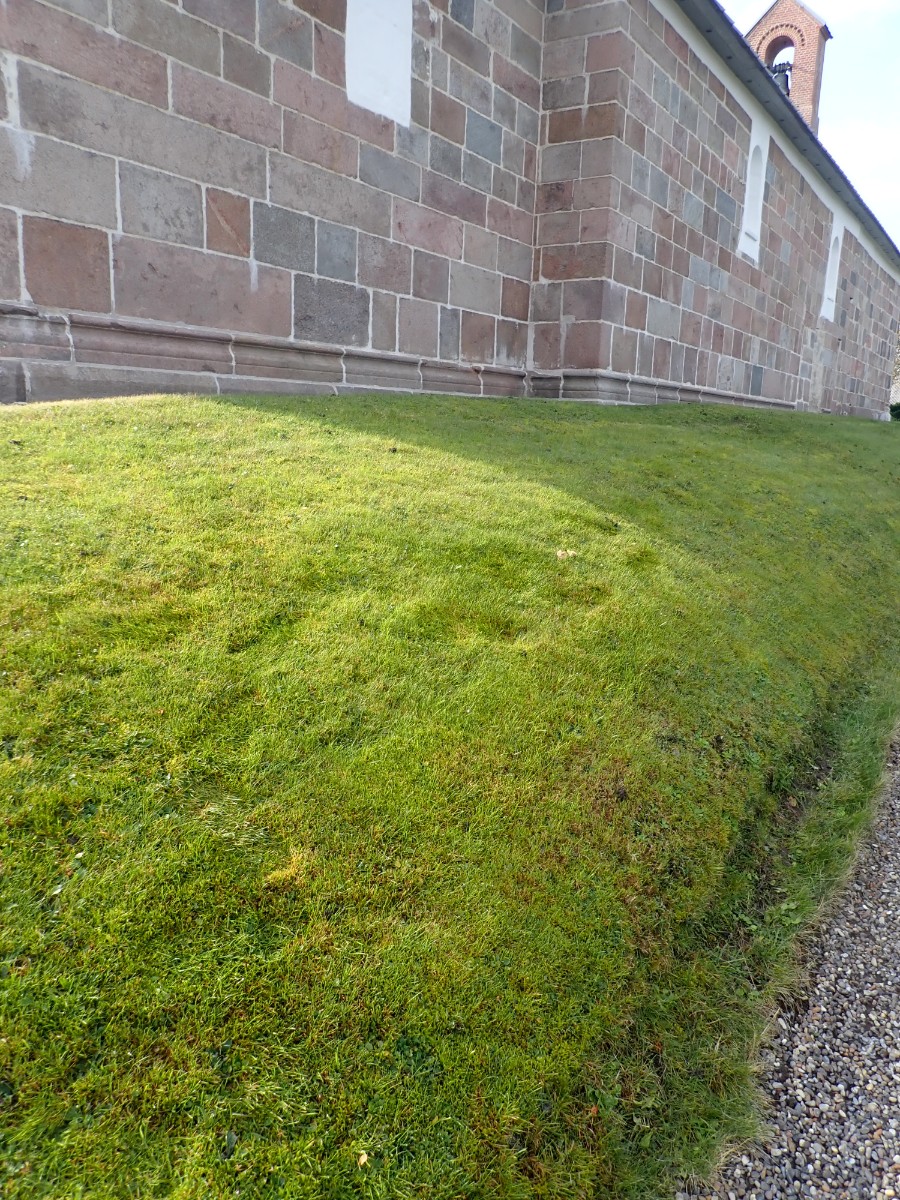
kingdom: Fungi
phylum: Basidiomycota
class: Agaricomycetes
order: Agaricales
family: Hygrophoraceae
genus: Cuphophyllus
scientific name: Cuphophyllus pratensis
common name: eng-vokshat
